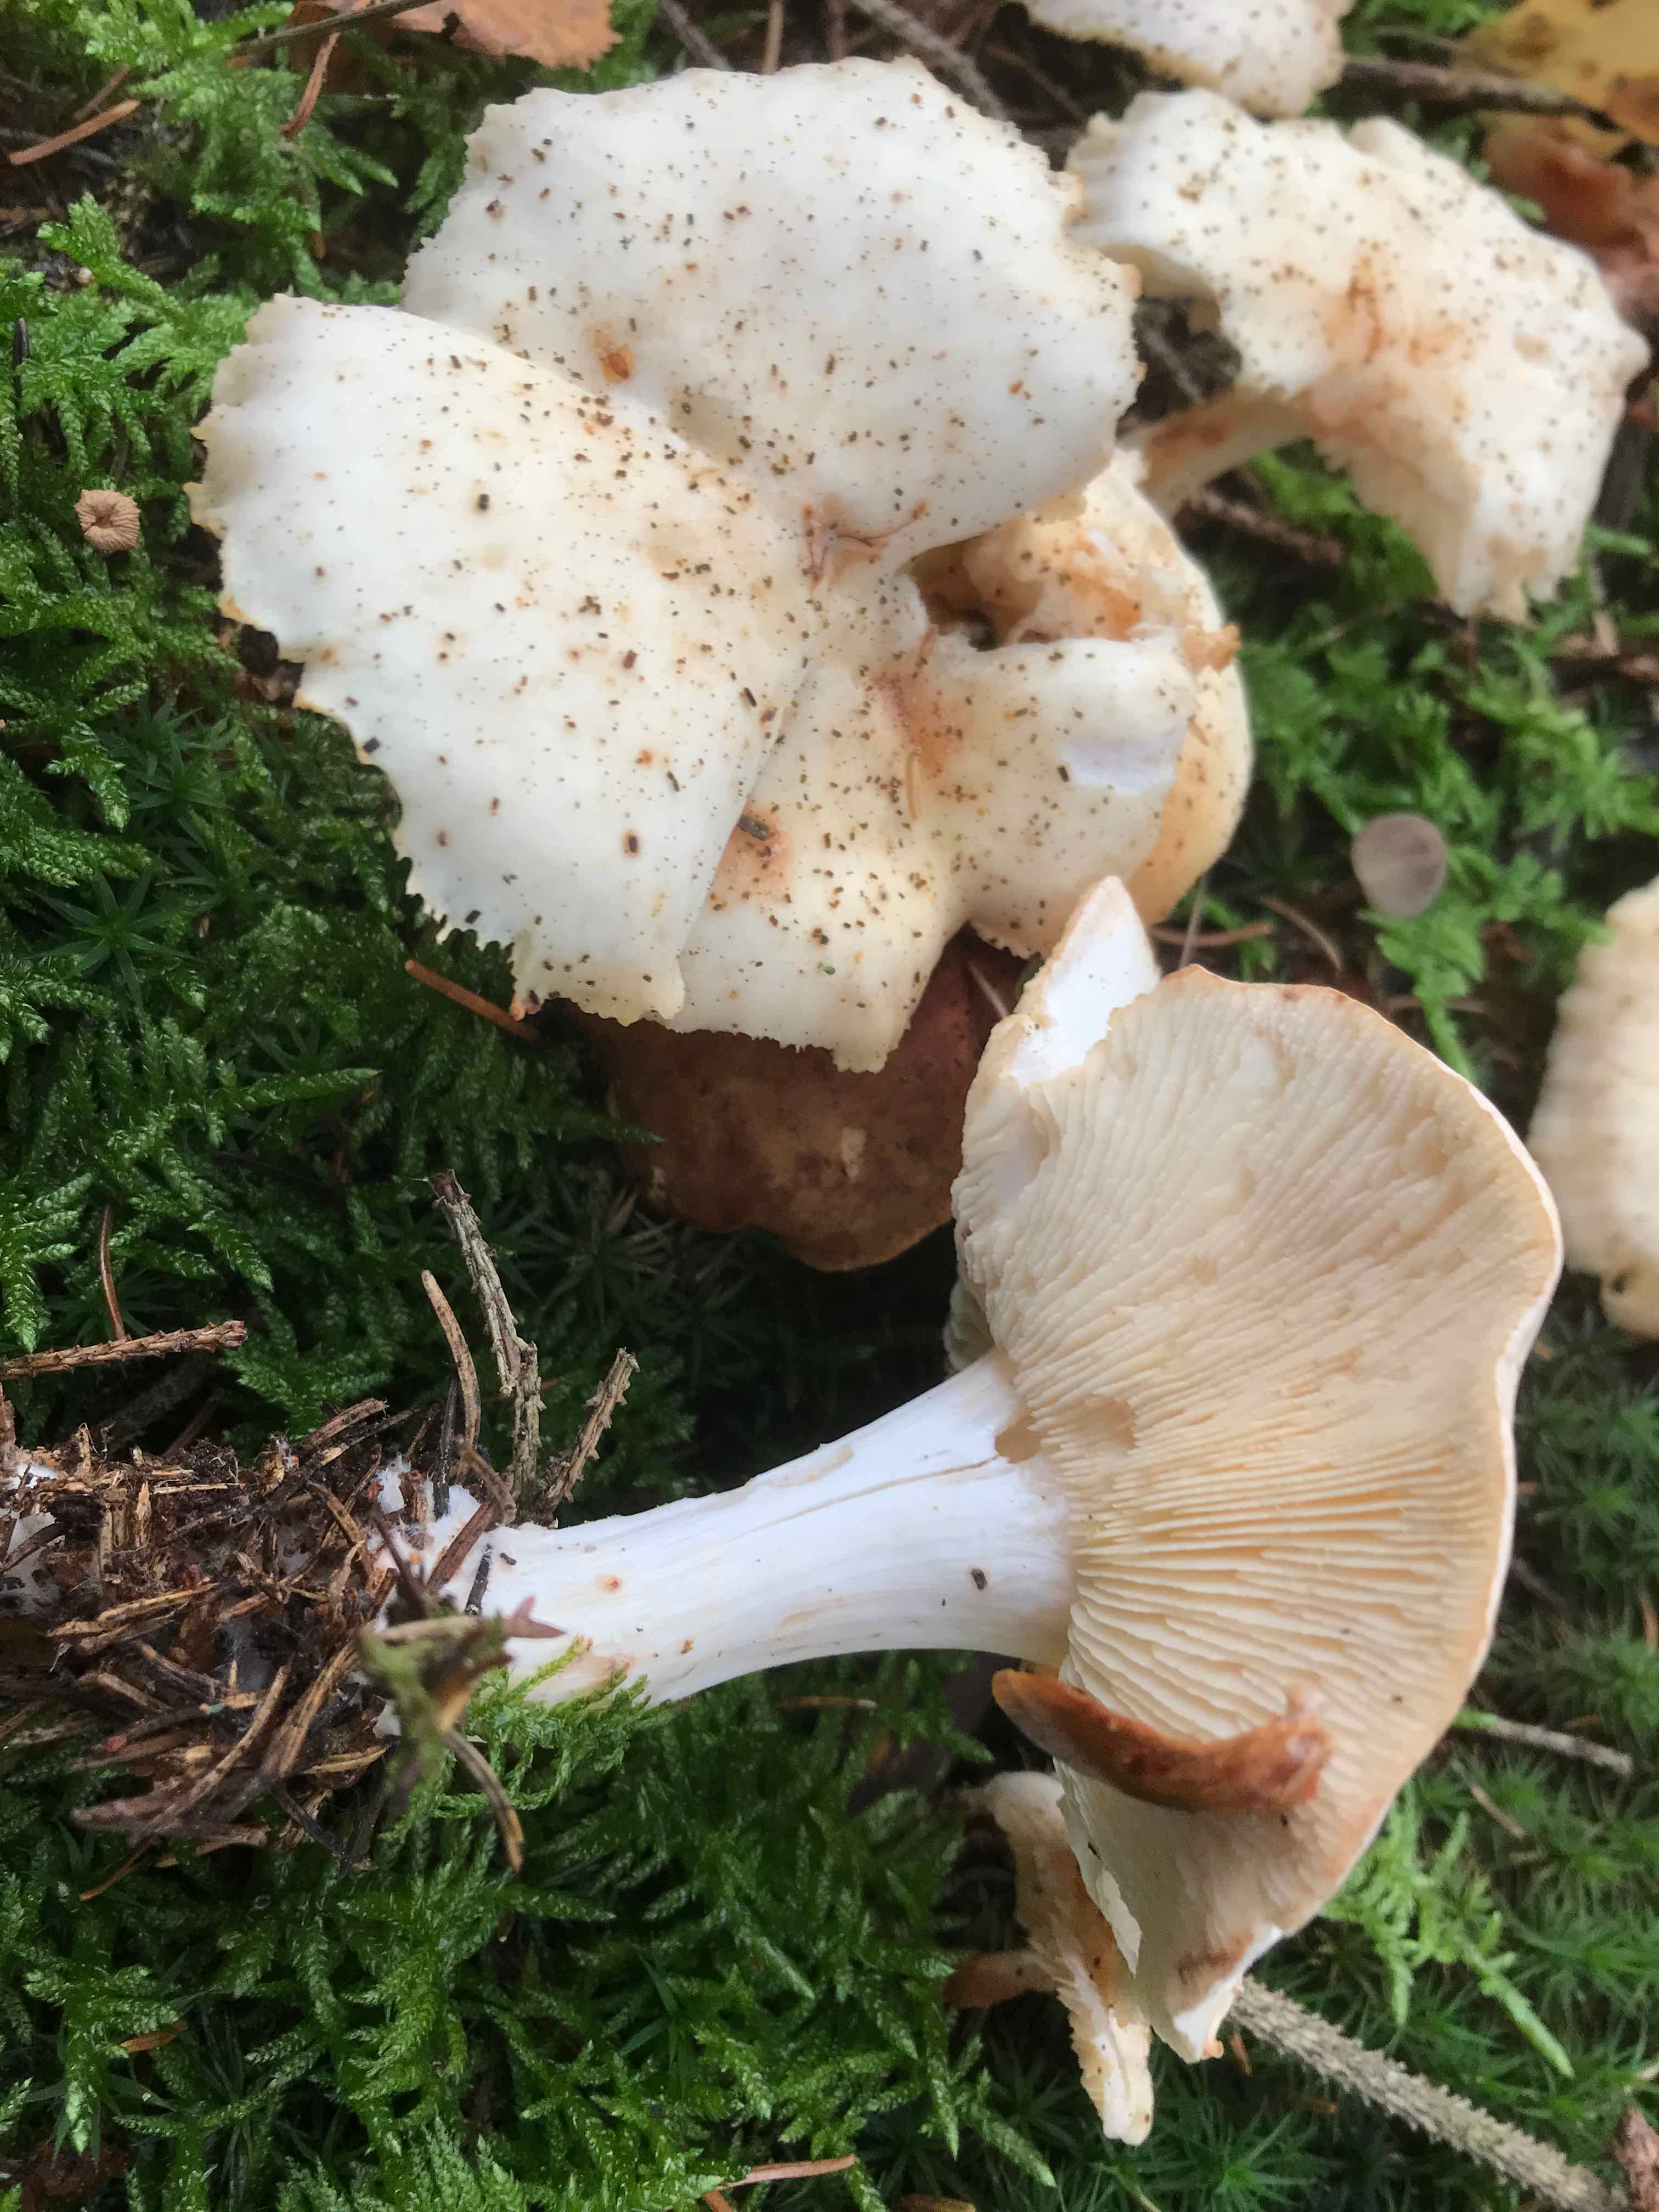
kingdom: Fungi
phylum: Basidiomycota
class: Agaricomycetes
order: Agaricales
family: Omphalotaceae
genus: Rhodocollybia
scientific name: Rhodocollybia maculata
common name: plettet fladhat
